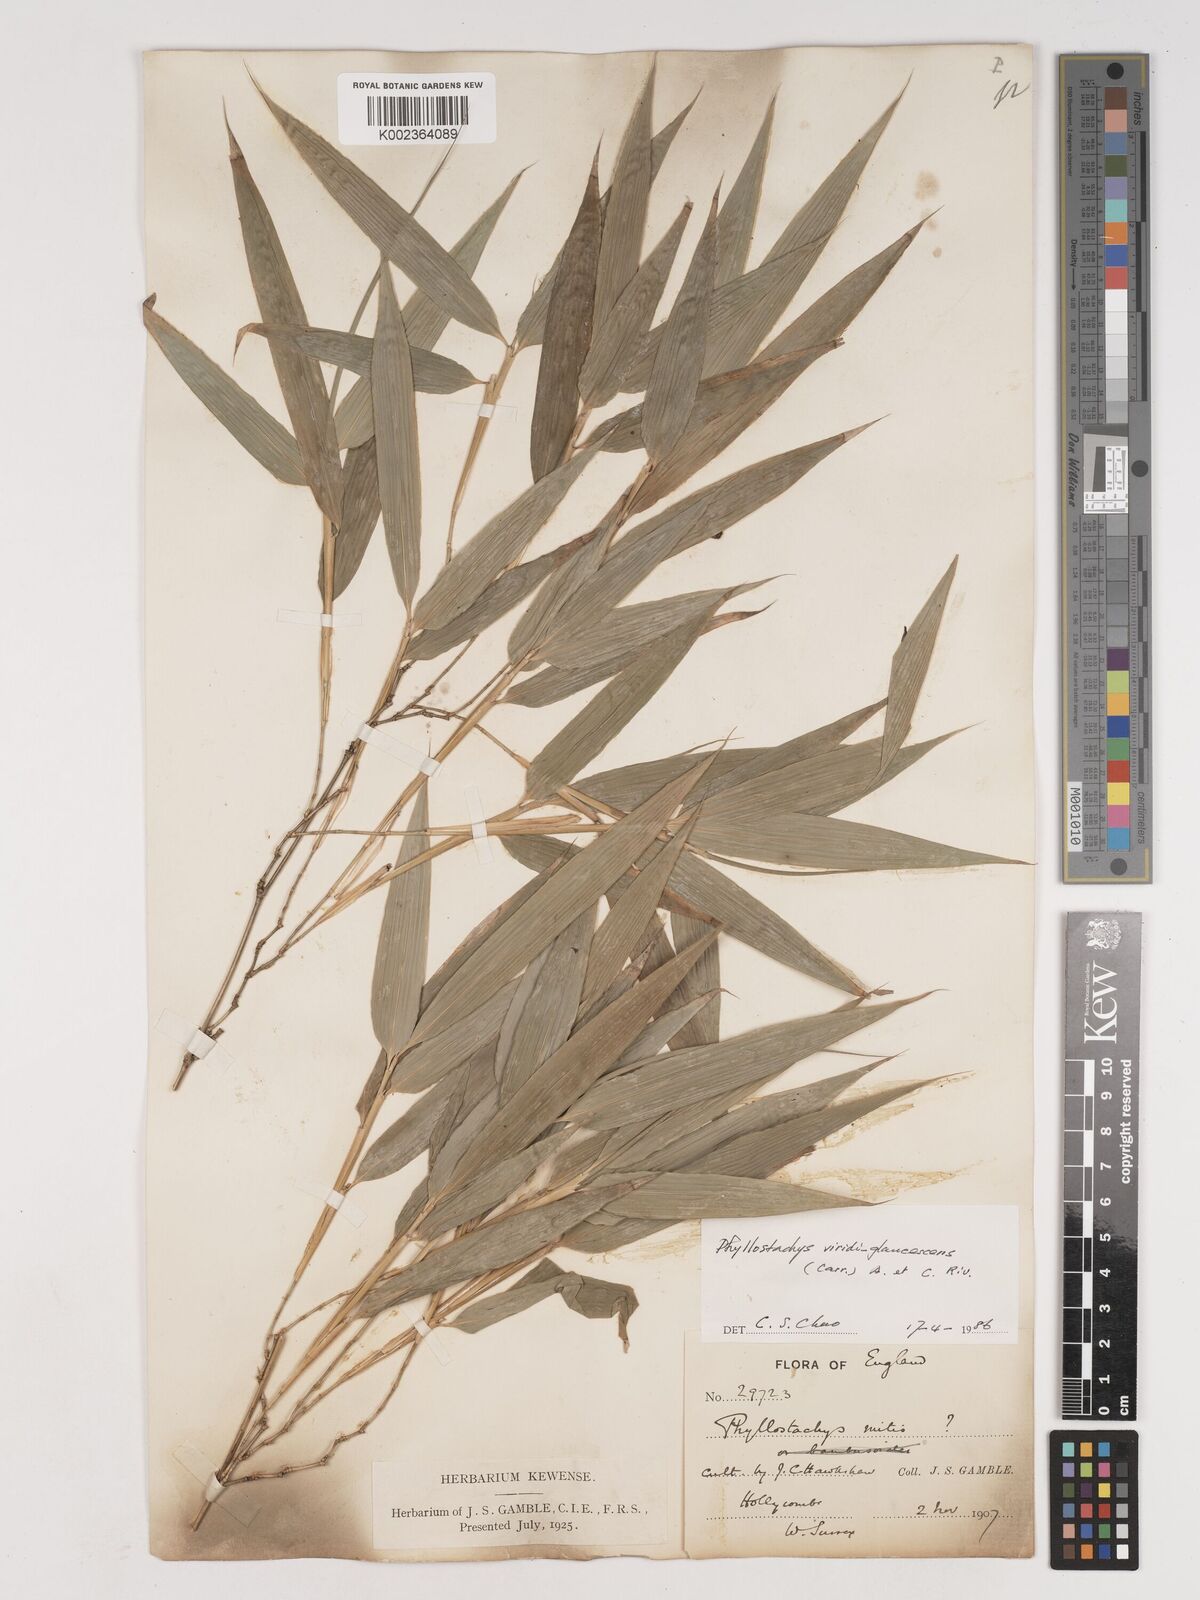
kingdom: Plantae
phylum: Tracheophyta
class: Liliopsida
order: Poales
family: Poaceae
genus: Phyllostachys
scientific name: Phyllostachys viridiglaucescens
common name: Greenwax golden bamboo
